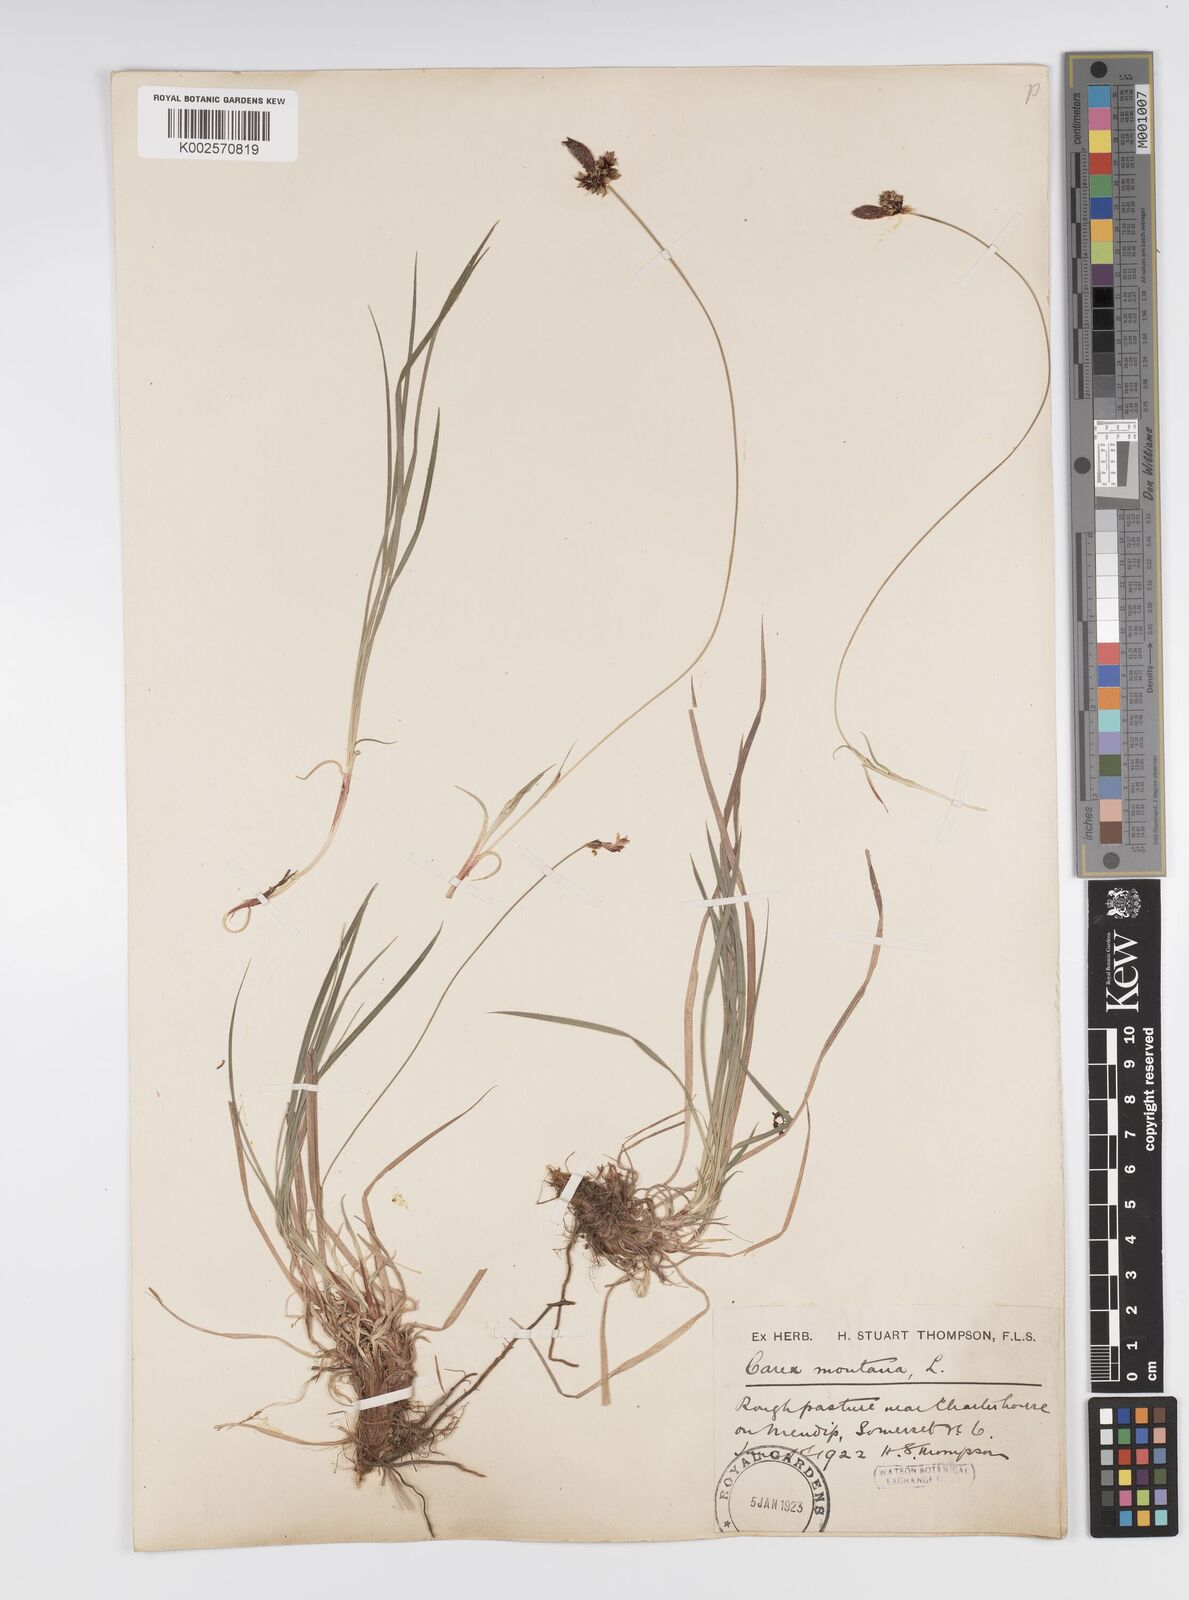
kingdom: Plantae
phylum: Tracheophyta
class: Liliopsida
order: Poales
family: Cyperaceae
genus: Carex
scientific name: Carex montana
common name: Soft-leaved sedge
